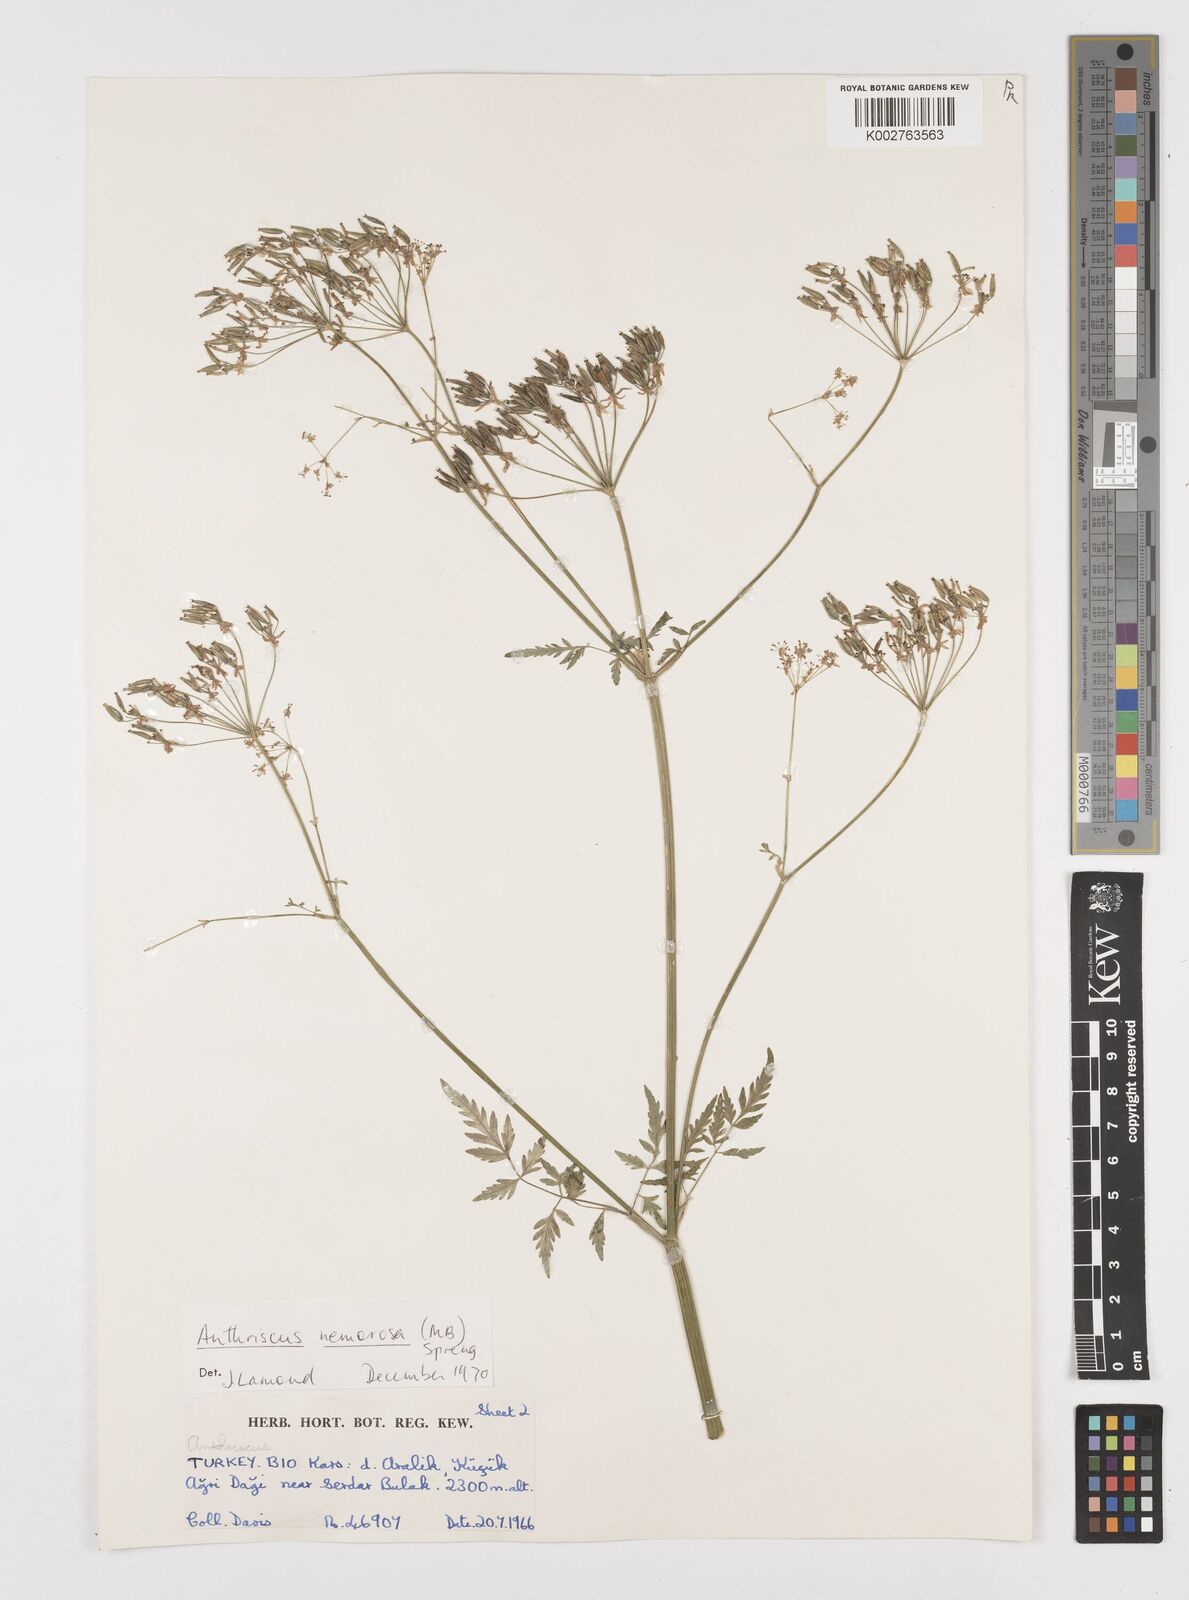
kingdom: Plantae
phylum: Tracheophyta
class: Magnoliopsida
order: Apiales
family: Apiaceae
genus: Anthriscus
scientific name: Anthriscus sylvestris
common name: Cow parsley
